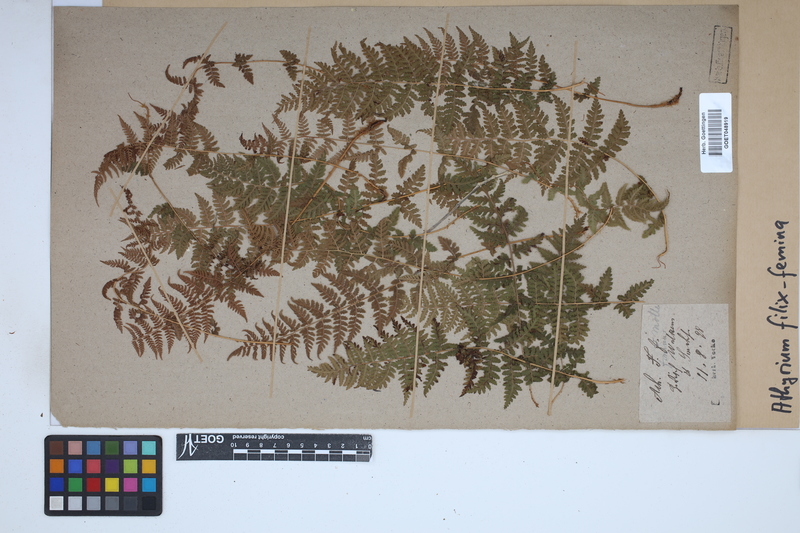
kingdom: Plantae
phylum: Tracheophyta
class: Polypodiopsida
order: Polypodiales
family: Athyriaceae
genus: Athyrium
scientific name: Athyrium filix-femina
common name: Lady fern
